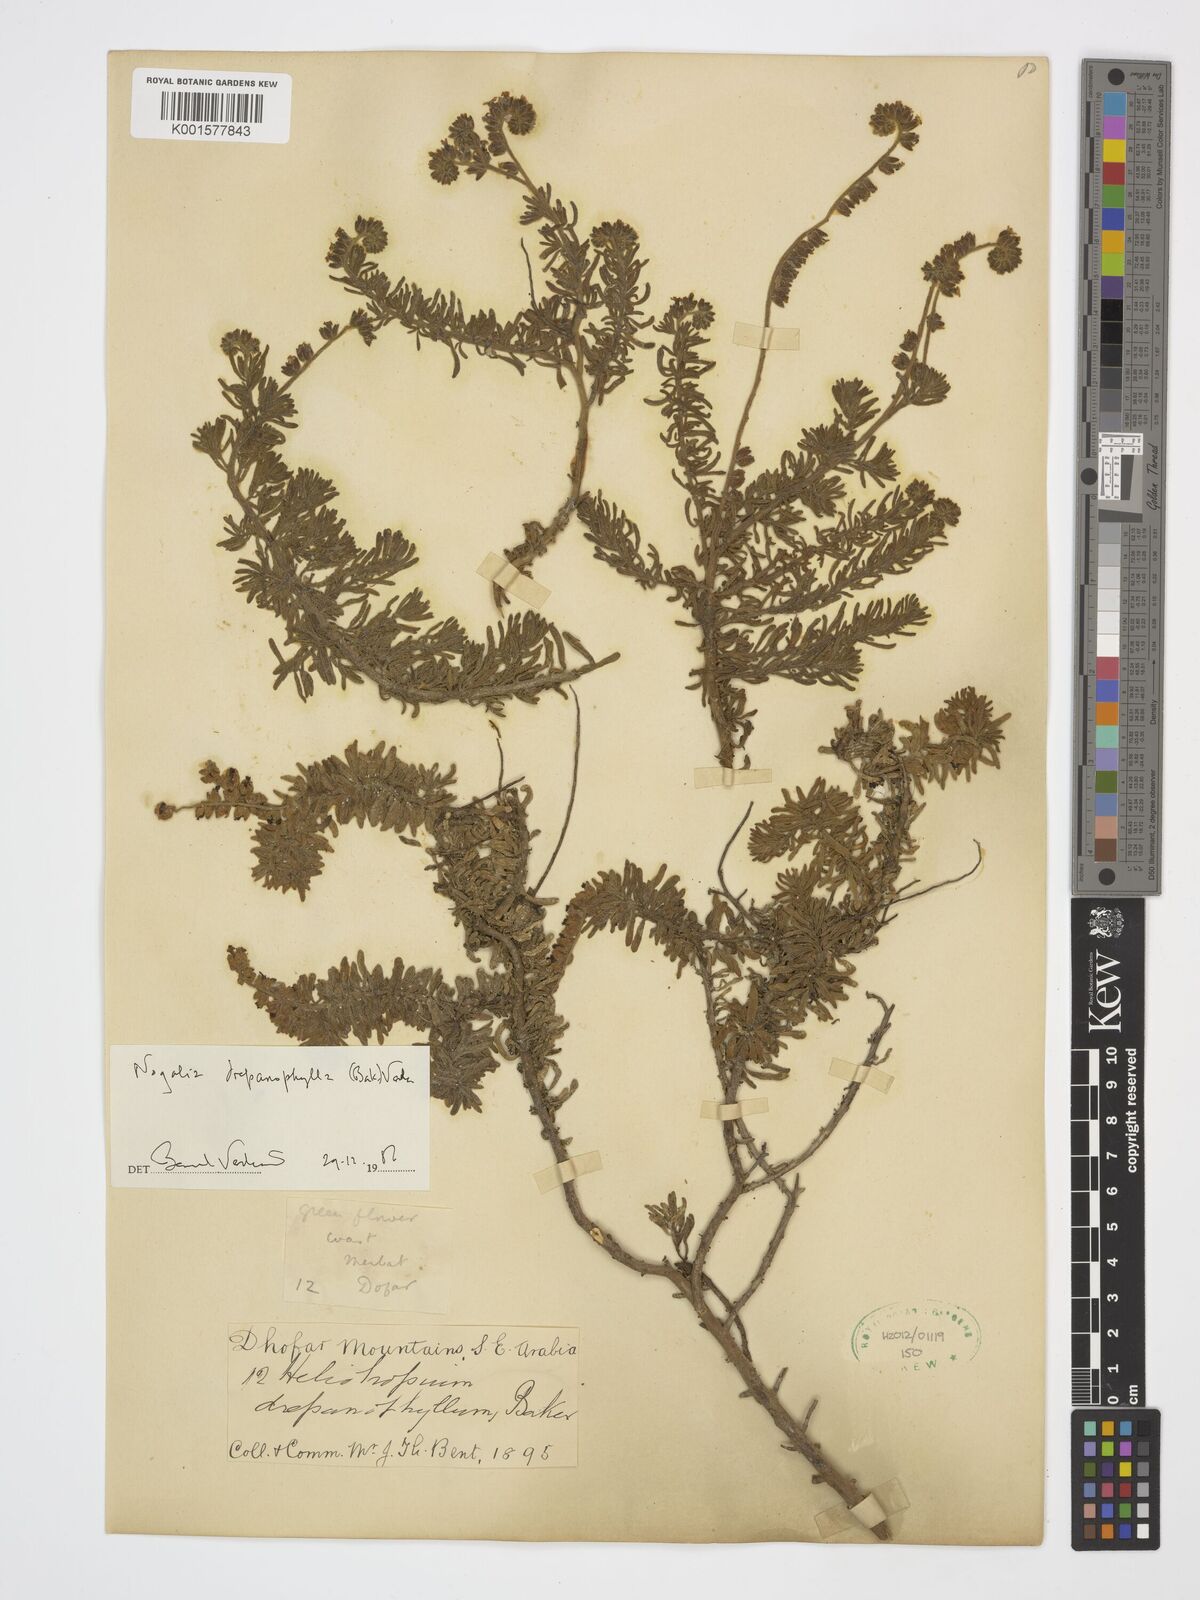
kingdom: Plantae
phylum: Tracheophyta
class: Magnoliopsida
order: Boraginales
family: Heliotropiaceae
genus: Heliotropium
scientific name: Heliotropium drepanophyllum
